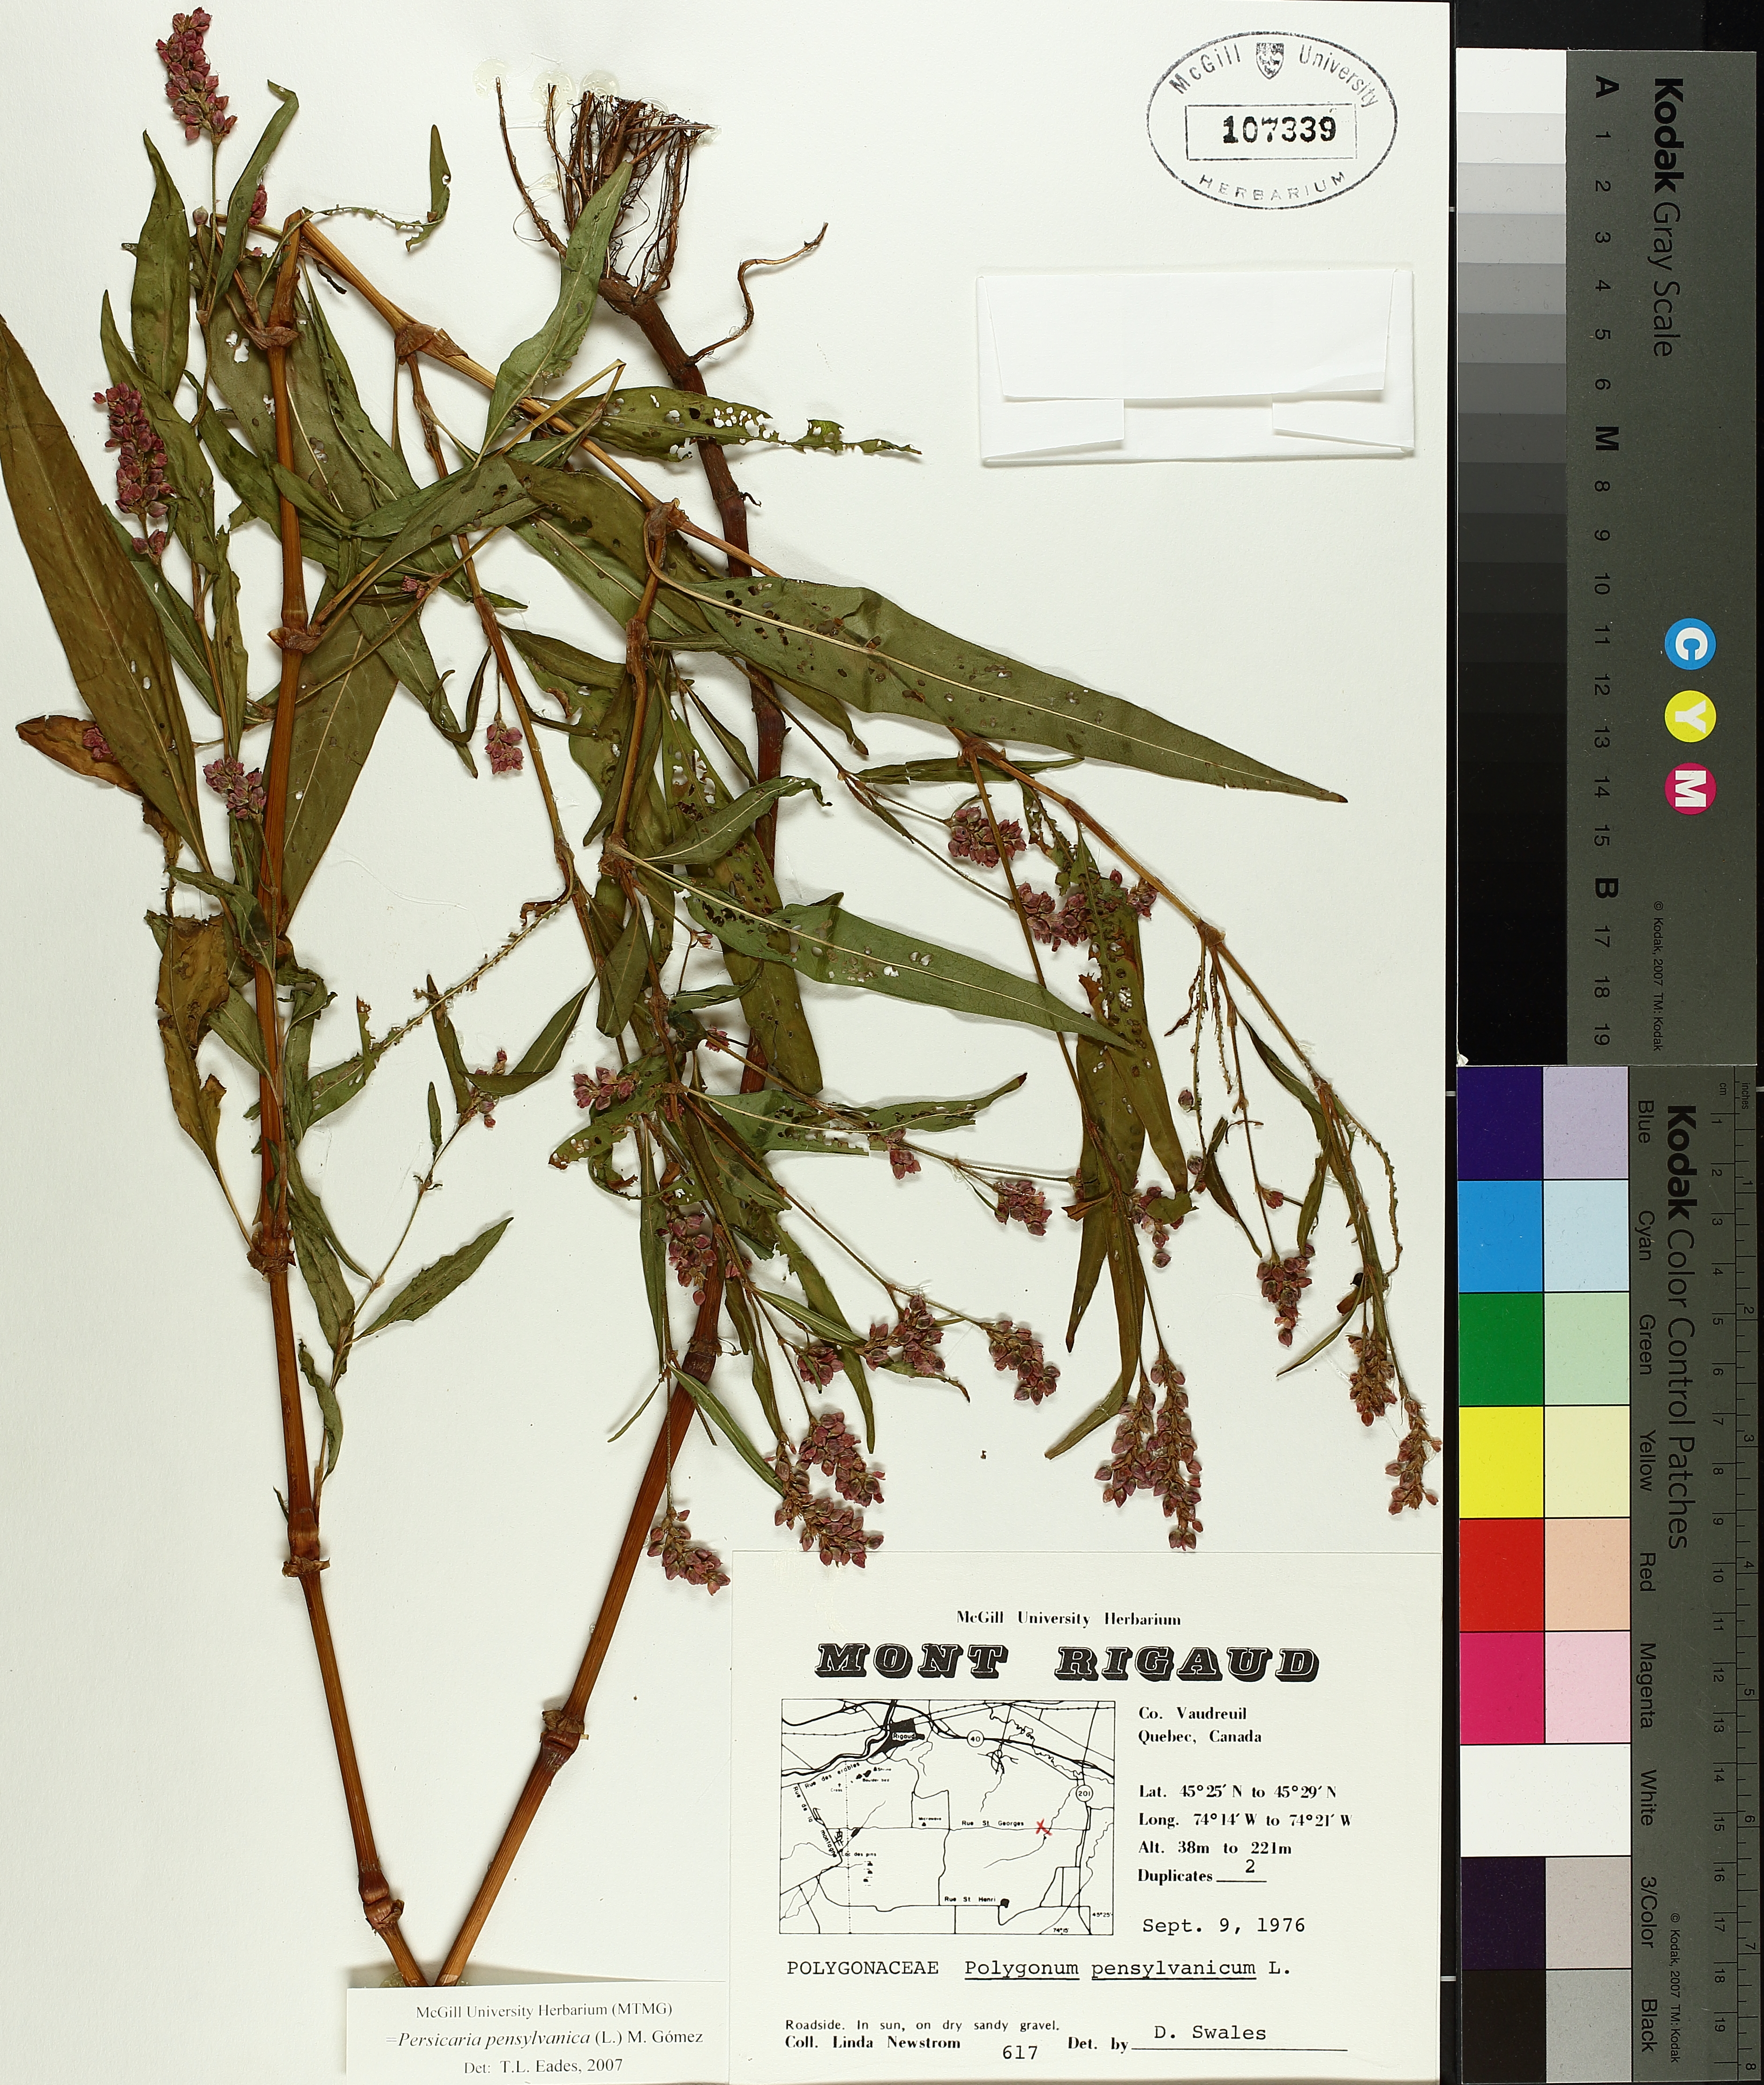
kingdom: Plantae
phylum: Tracheophyta
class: Magnoliopsida
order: Caryophyllales
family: Polygonaceae
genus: Persicaria
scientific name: Persicaria bungeana
